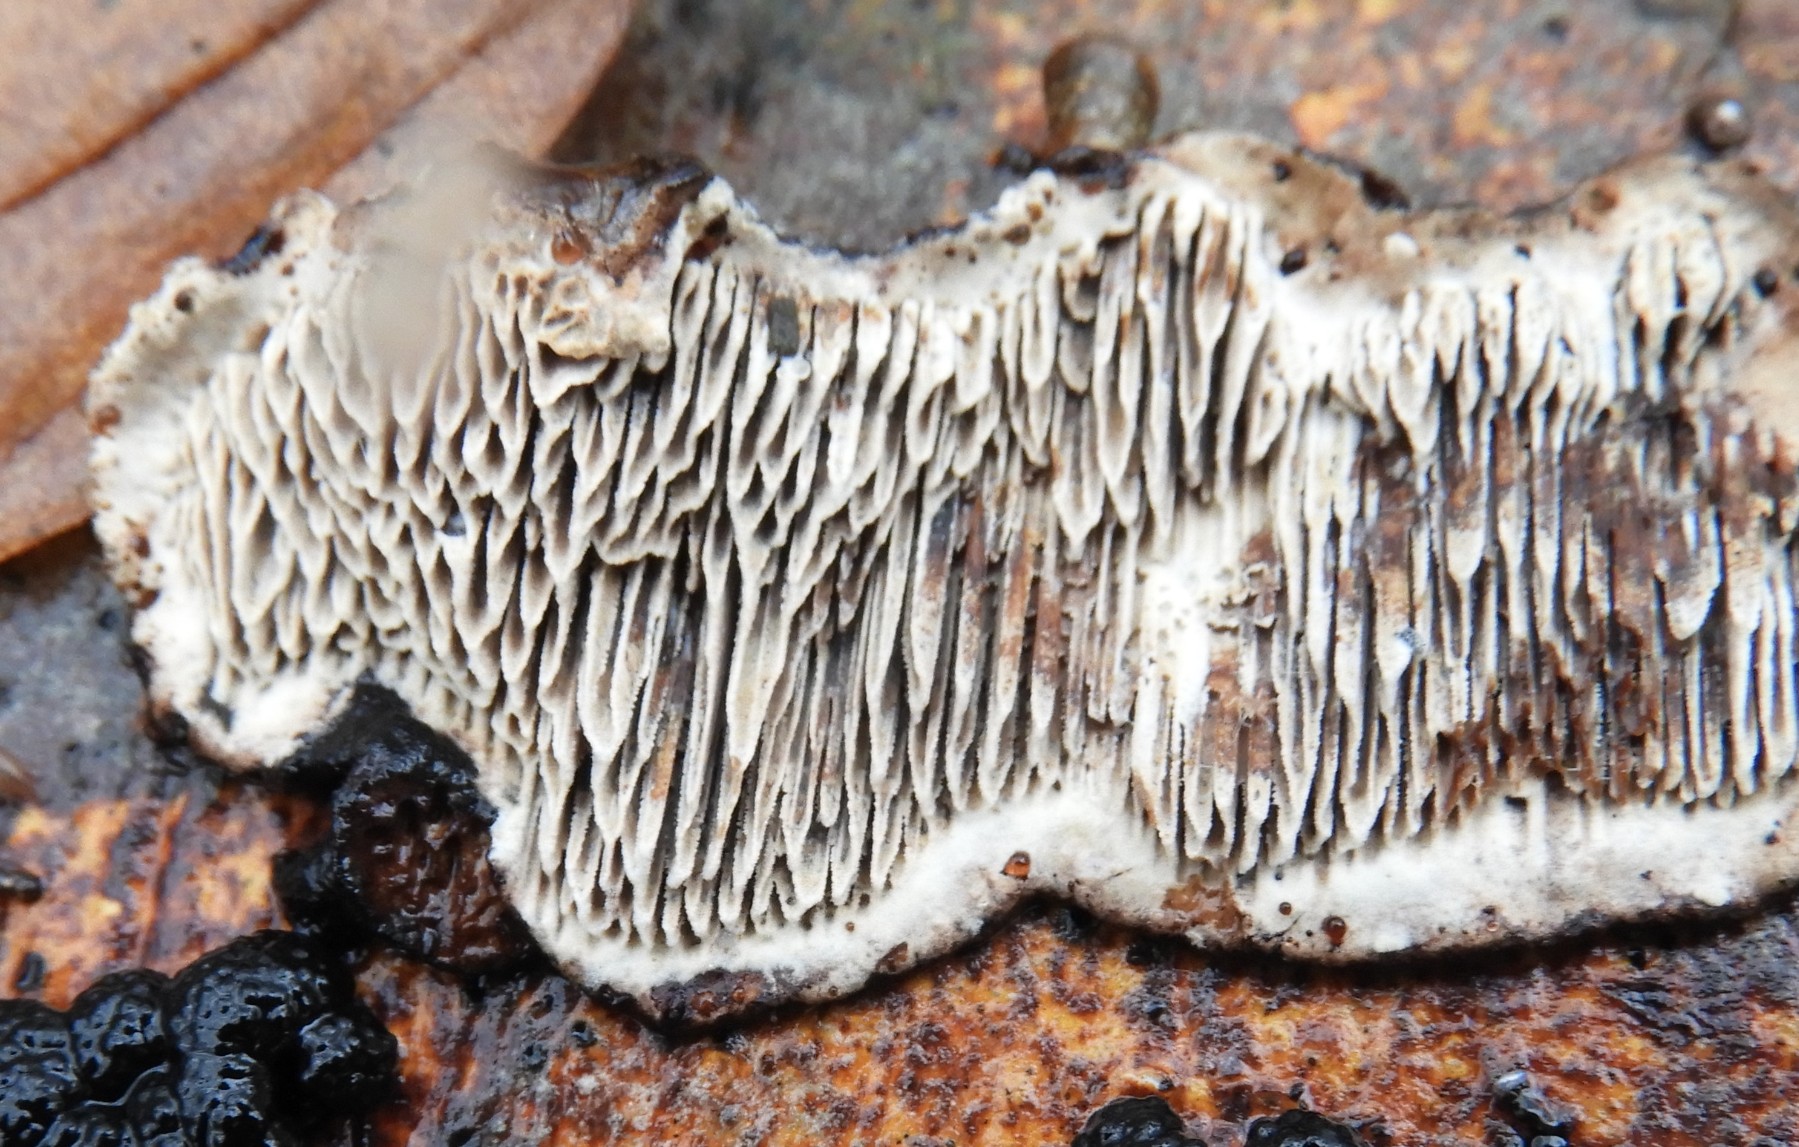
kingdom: Fungi
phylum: Basidiomycota
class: Agaricomycetes
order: Polyporales
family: Polyporaceae
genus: Podofomes
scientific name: Podofomes mollis
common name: blød begporesvamp
